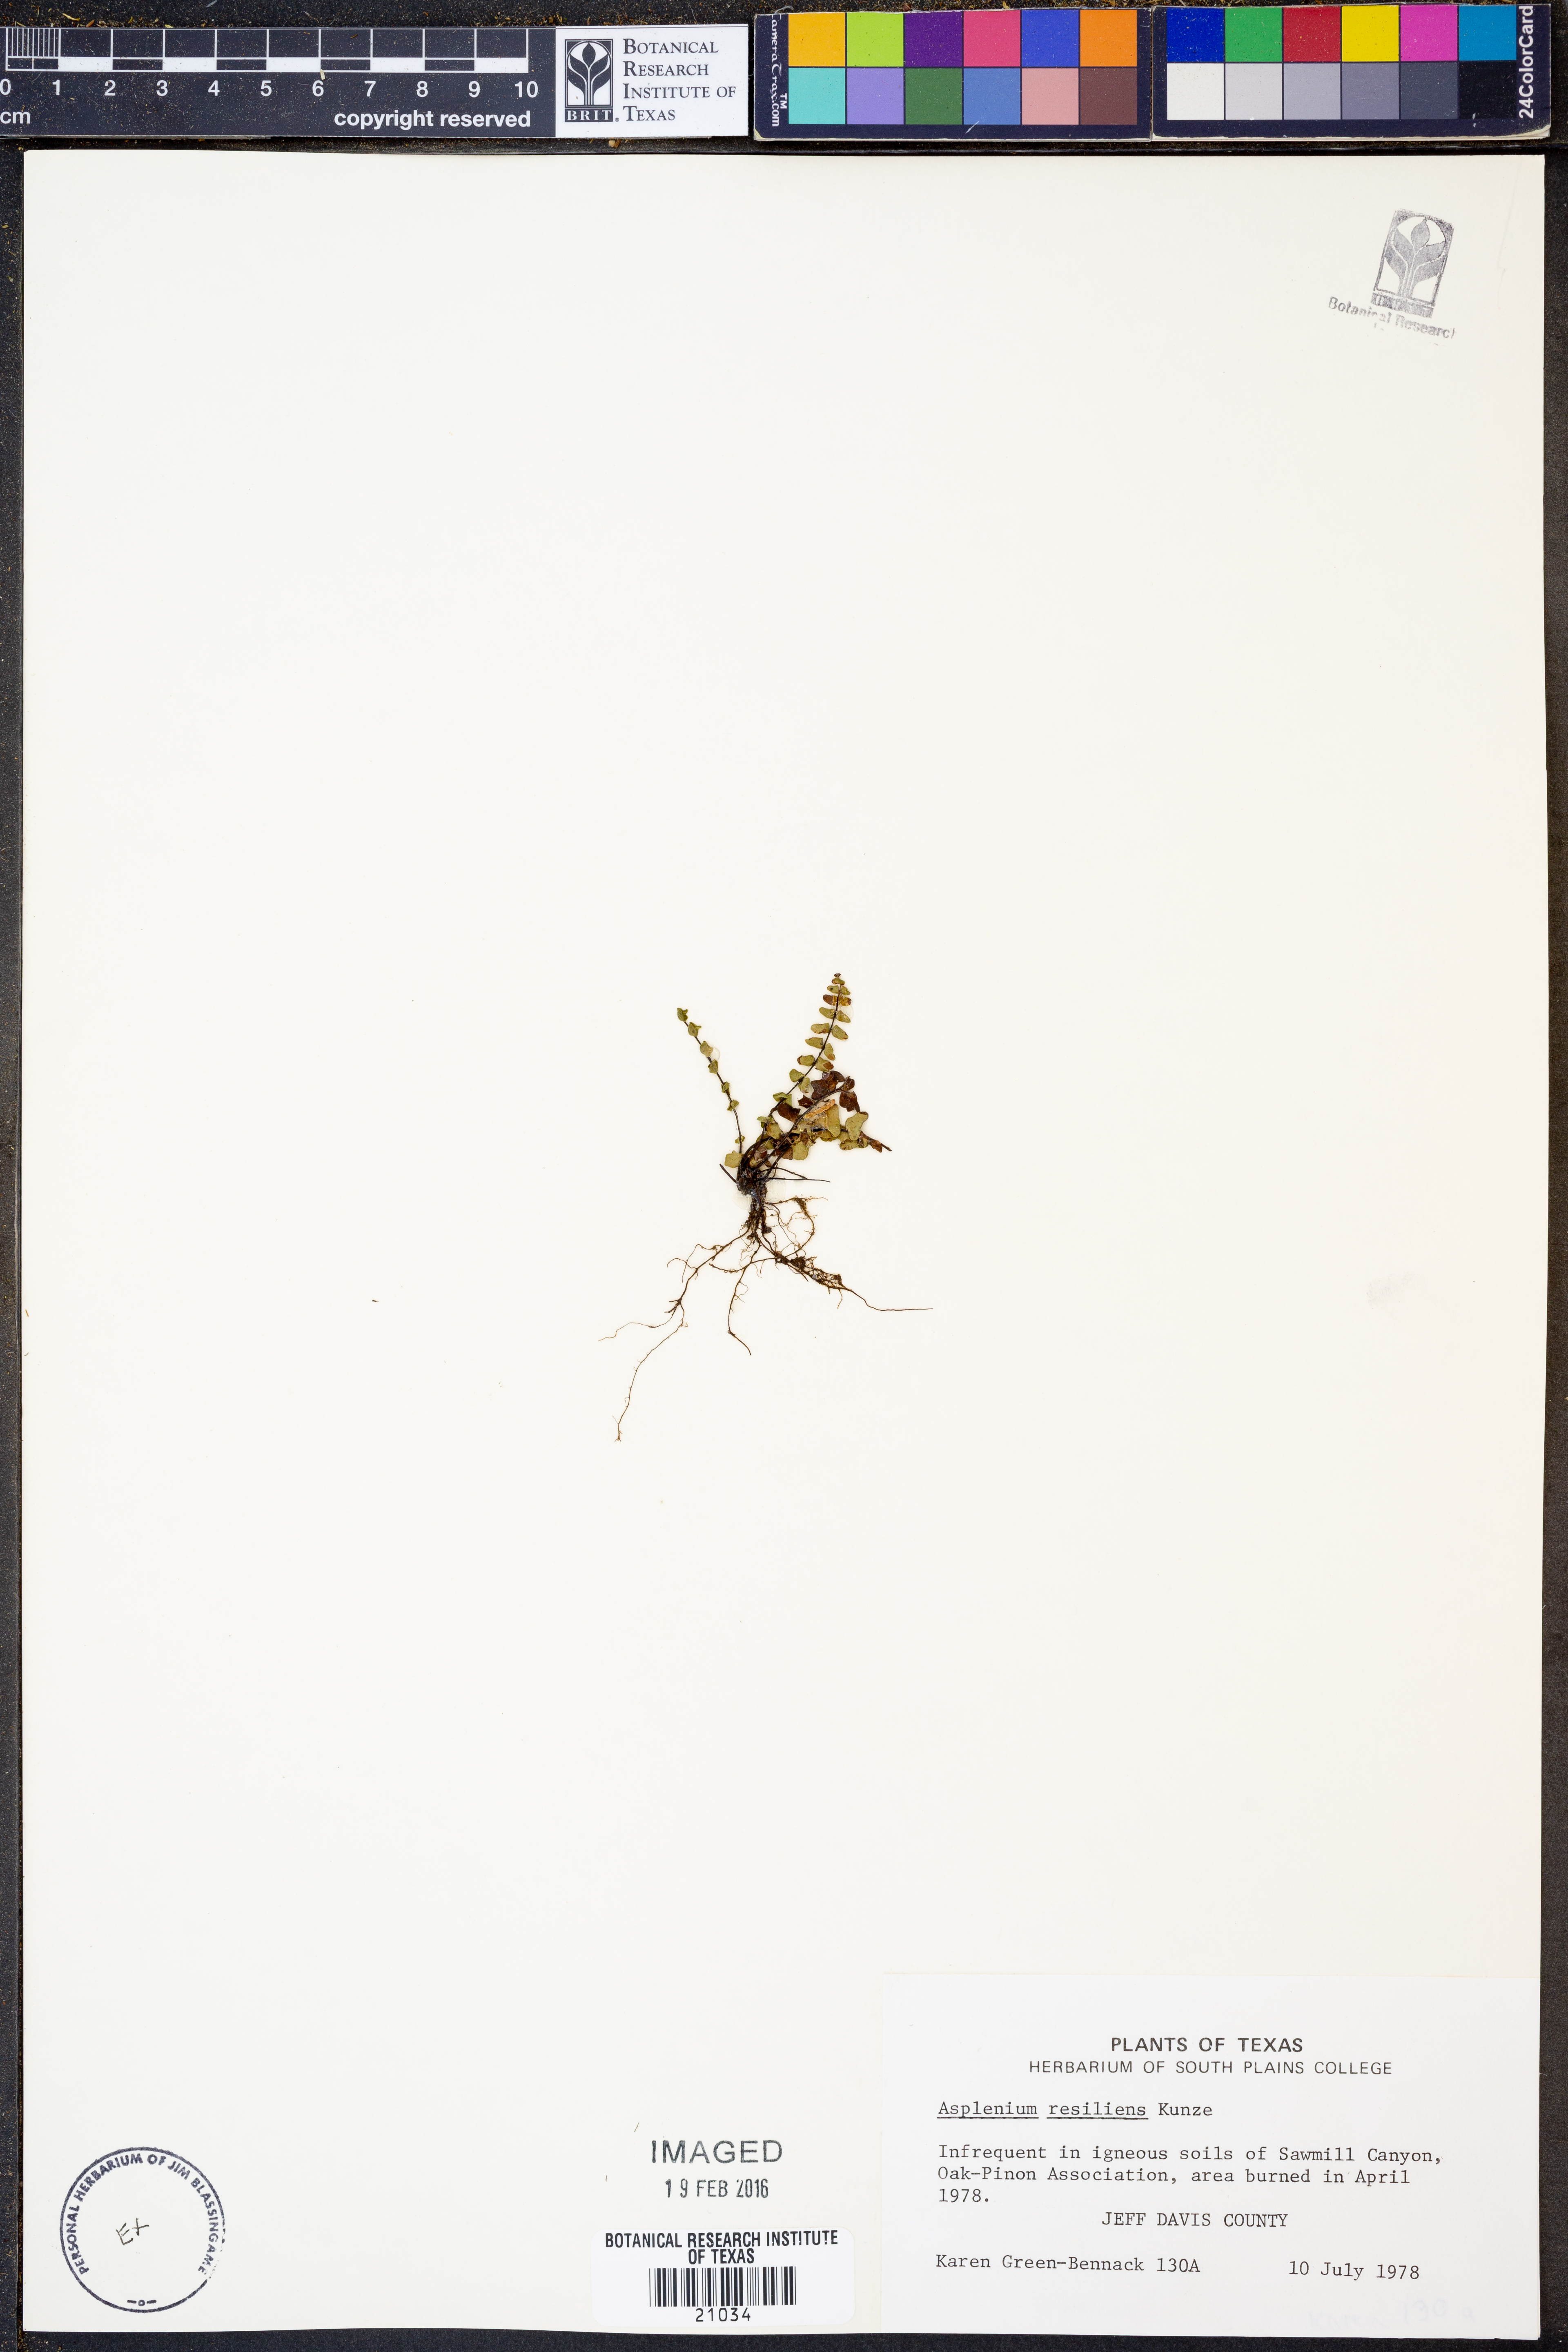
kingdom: Plantae
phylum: Tracheophyta
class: Polypodiopsida
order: Polypodiales
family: Aspleniaceae
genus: Asplenium
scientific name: Asplenium resiliens
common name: Blackstem spleenwort
